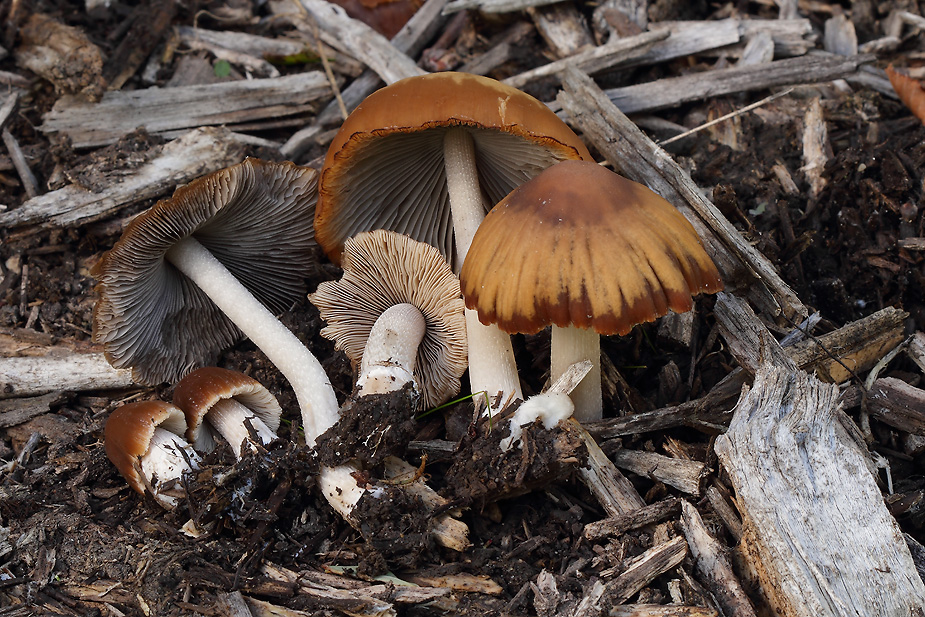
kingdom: Fungi
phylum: Basidiomycota
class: Agaricomycetes
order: Agaricales
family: Psathyrellaceae
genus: Psathyrella
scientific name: Psathyrella fusca
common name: gråbladet mørkhat
